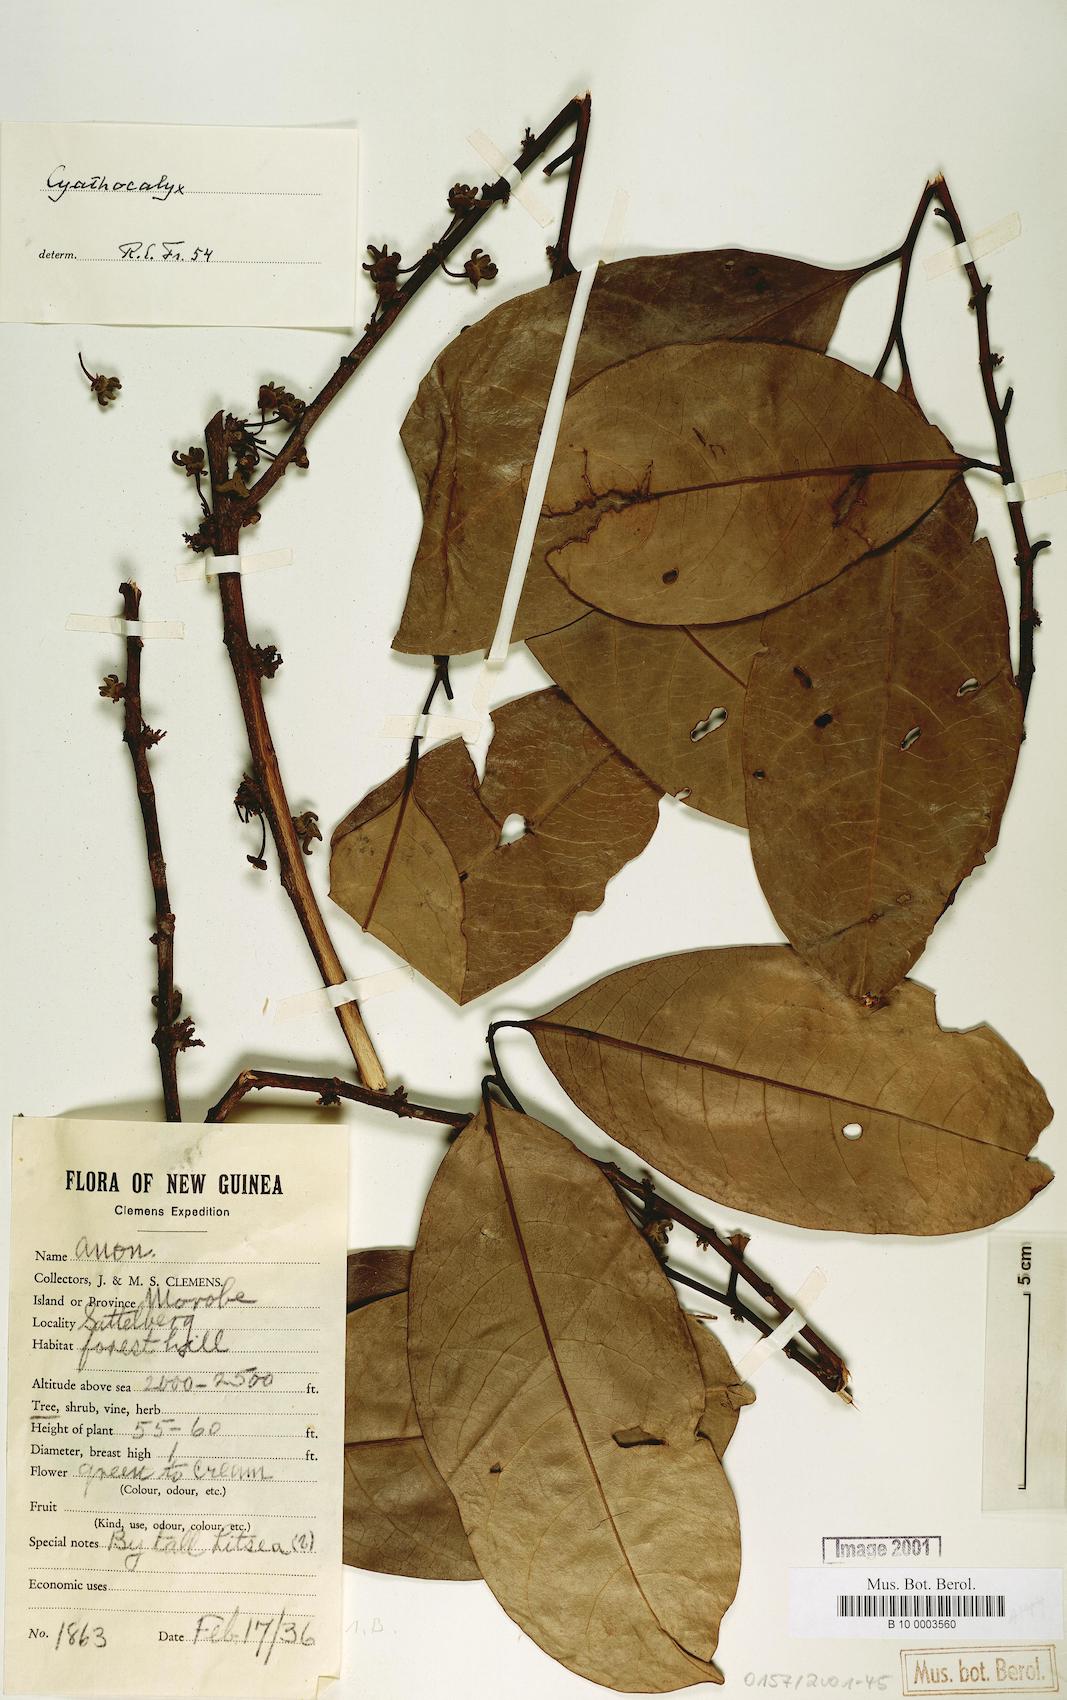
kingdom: Plantae
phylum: Tracheophyta
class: Magnoliopsida
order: Magnoliales
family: Annonaceae
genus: Cyathocalyx
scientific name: Cyathocalyx
